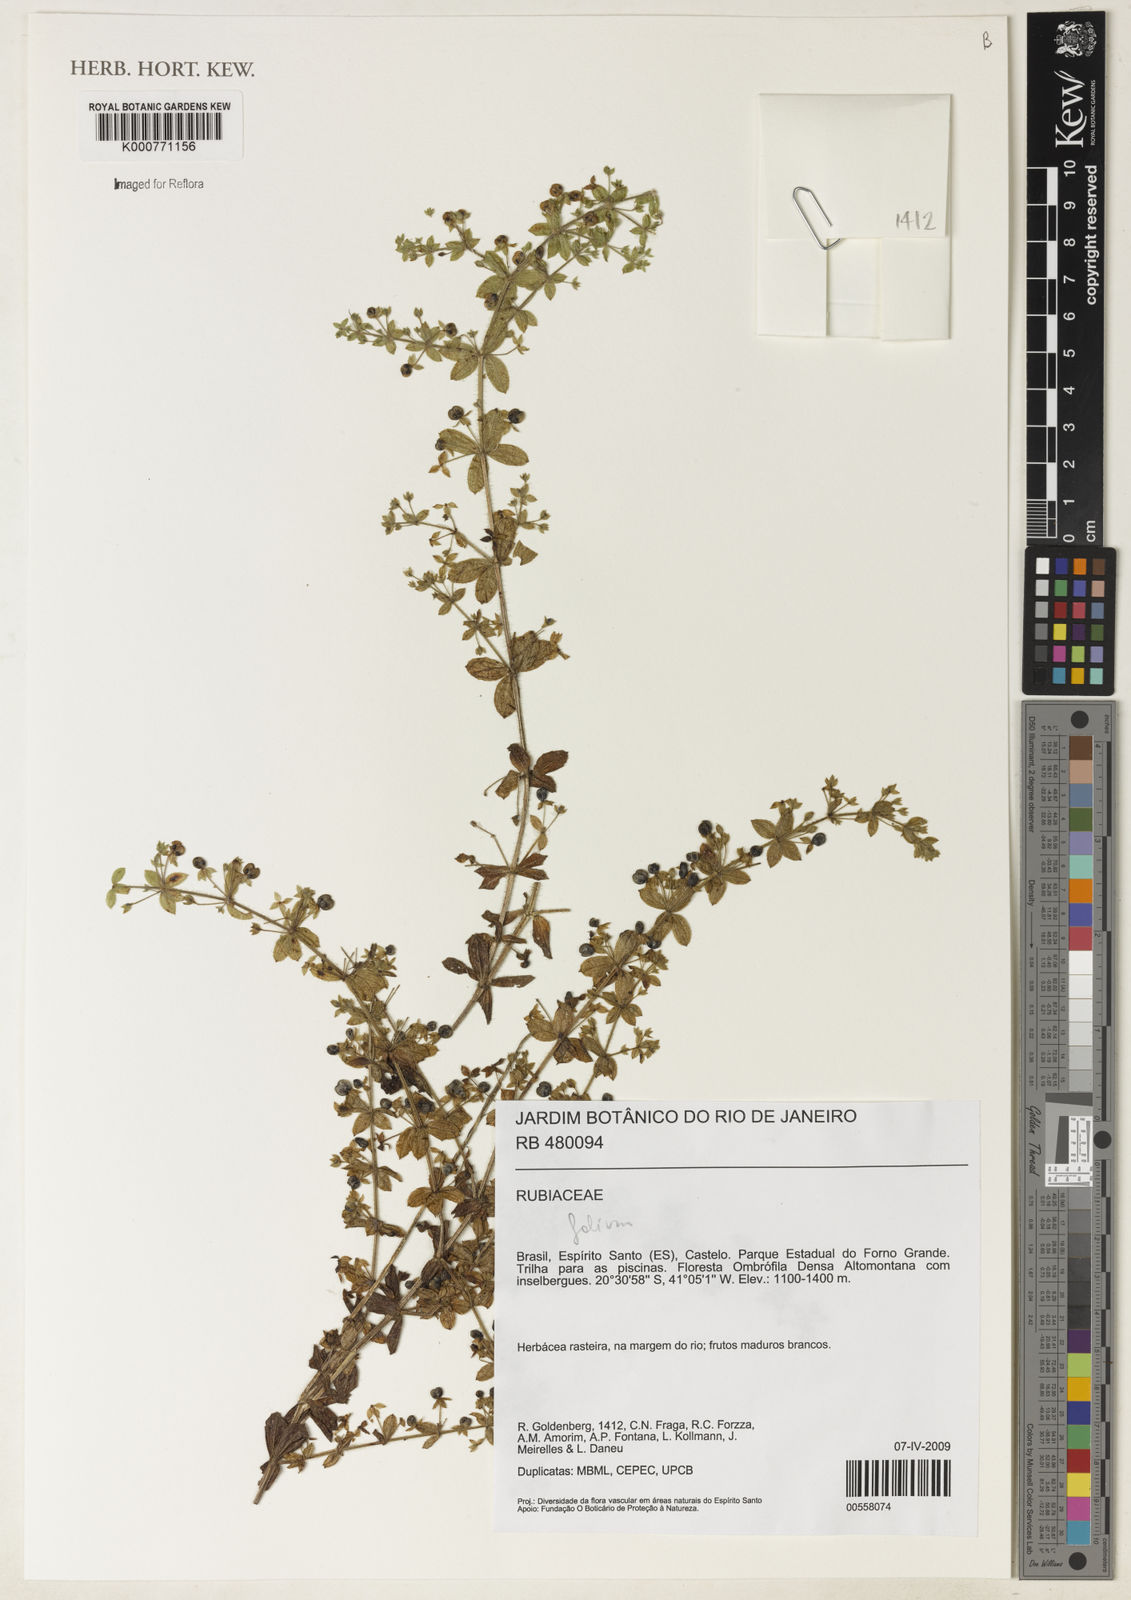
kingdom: Plantae
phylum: Tracheophyta
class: Magnoliopsida
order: Gentianales
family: Rubiaceae
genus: Galium
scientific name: Galium
